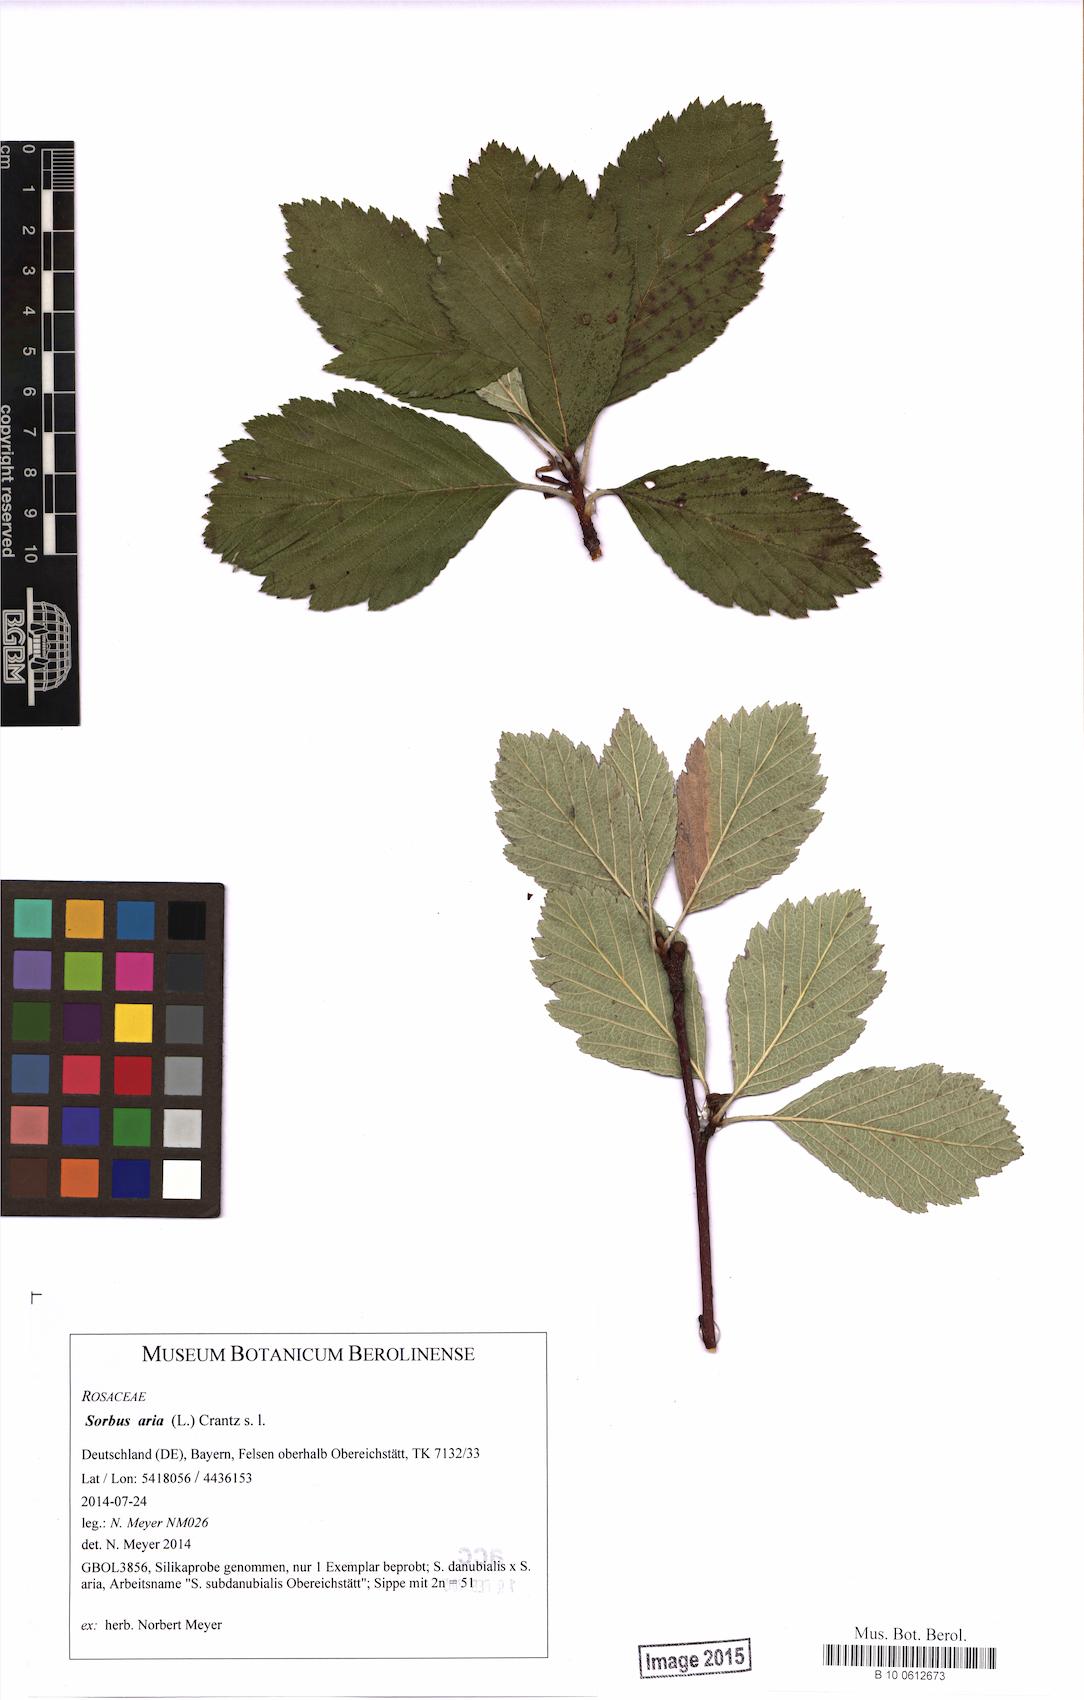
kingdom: Plantae
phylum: Tracheophyta
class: Magnoliopsida
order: Rosales
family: Rosaceae
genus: Aria
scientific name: Aria edulis
